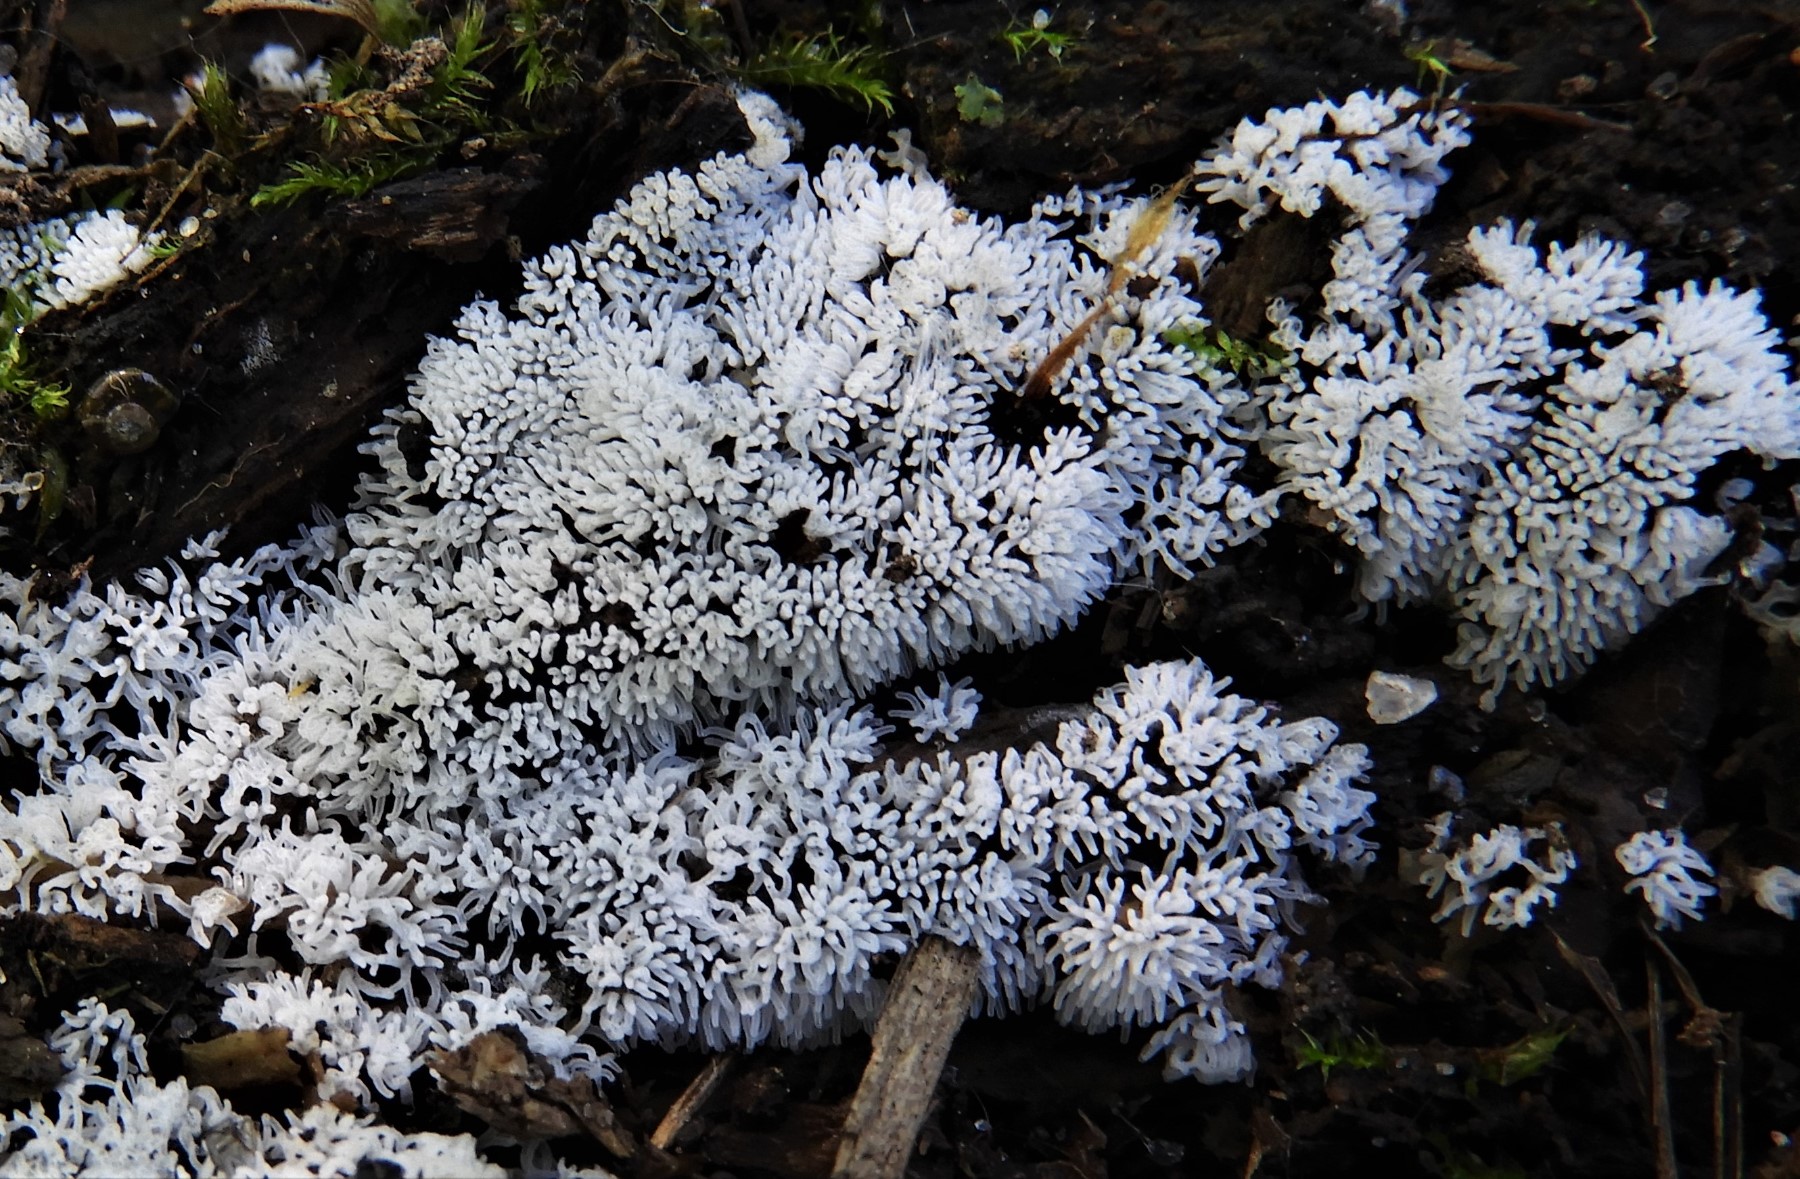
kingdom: Protozoa
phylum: Mycetozoa
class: Protosteliomycetes
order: Ceratiomyxales
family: Ceratiomyxaceae
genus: Ceratiomyxa
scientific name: Ceratiomyxa fruticulosa
